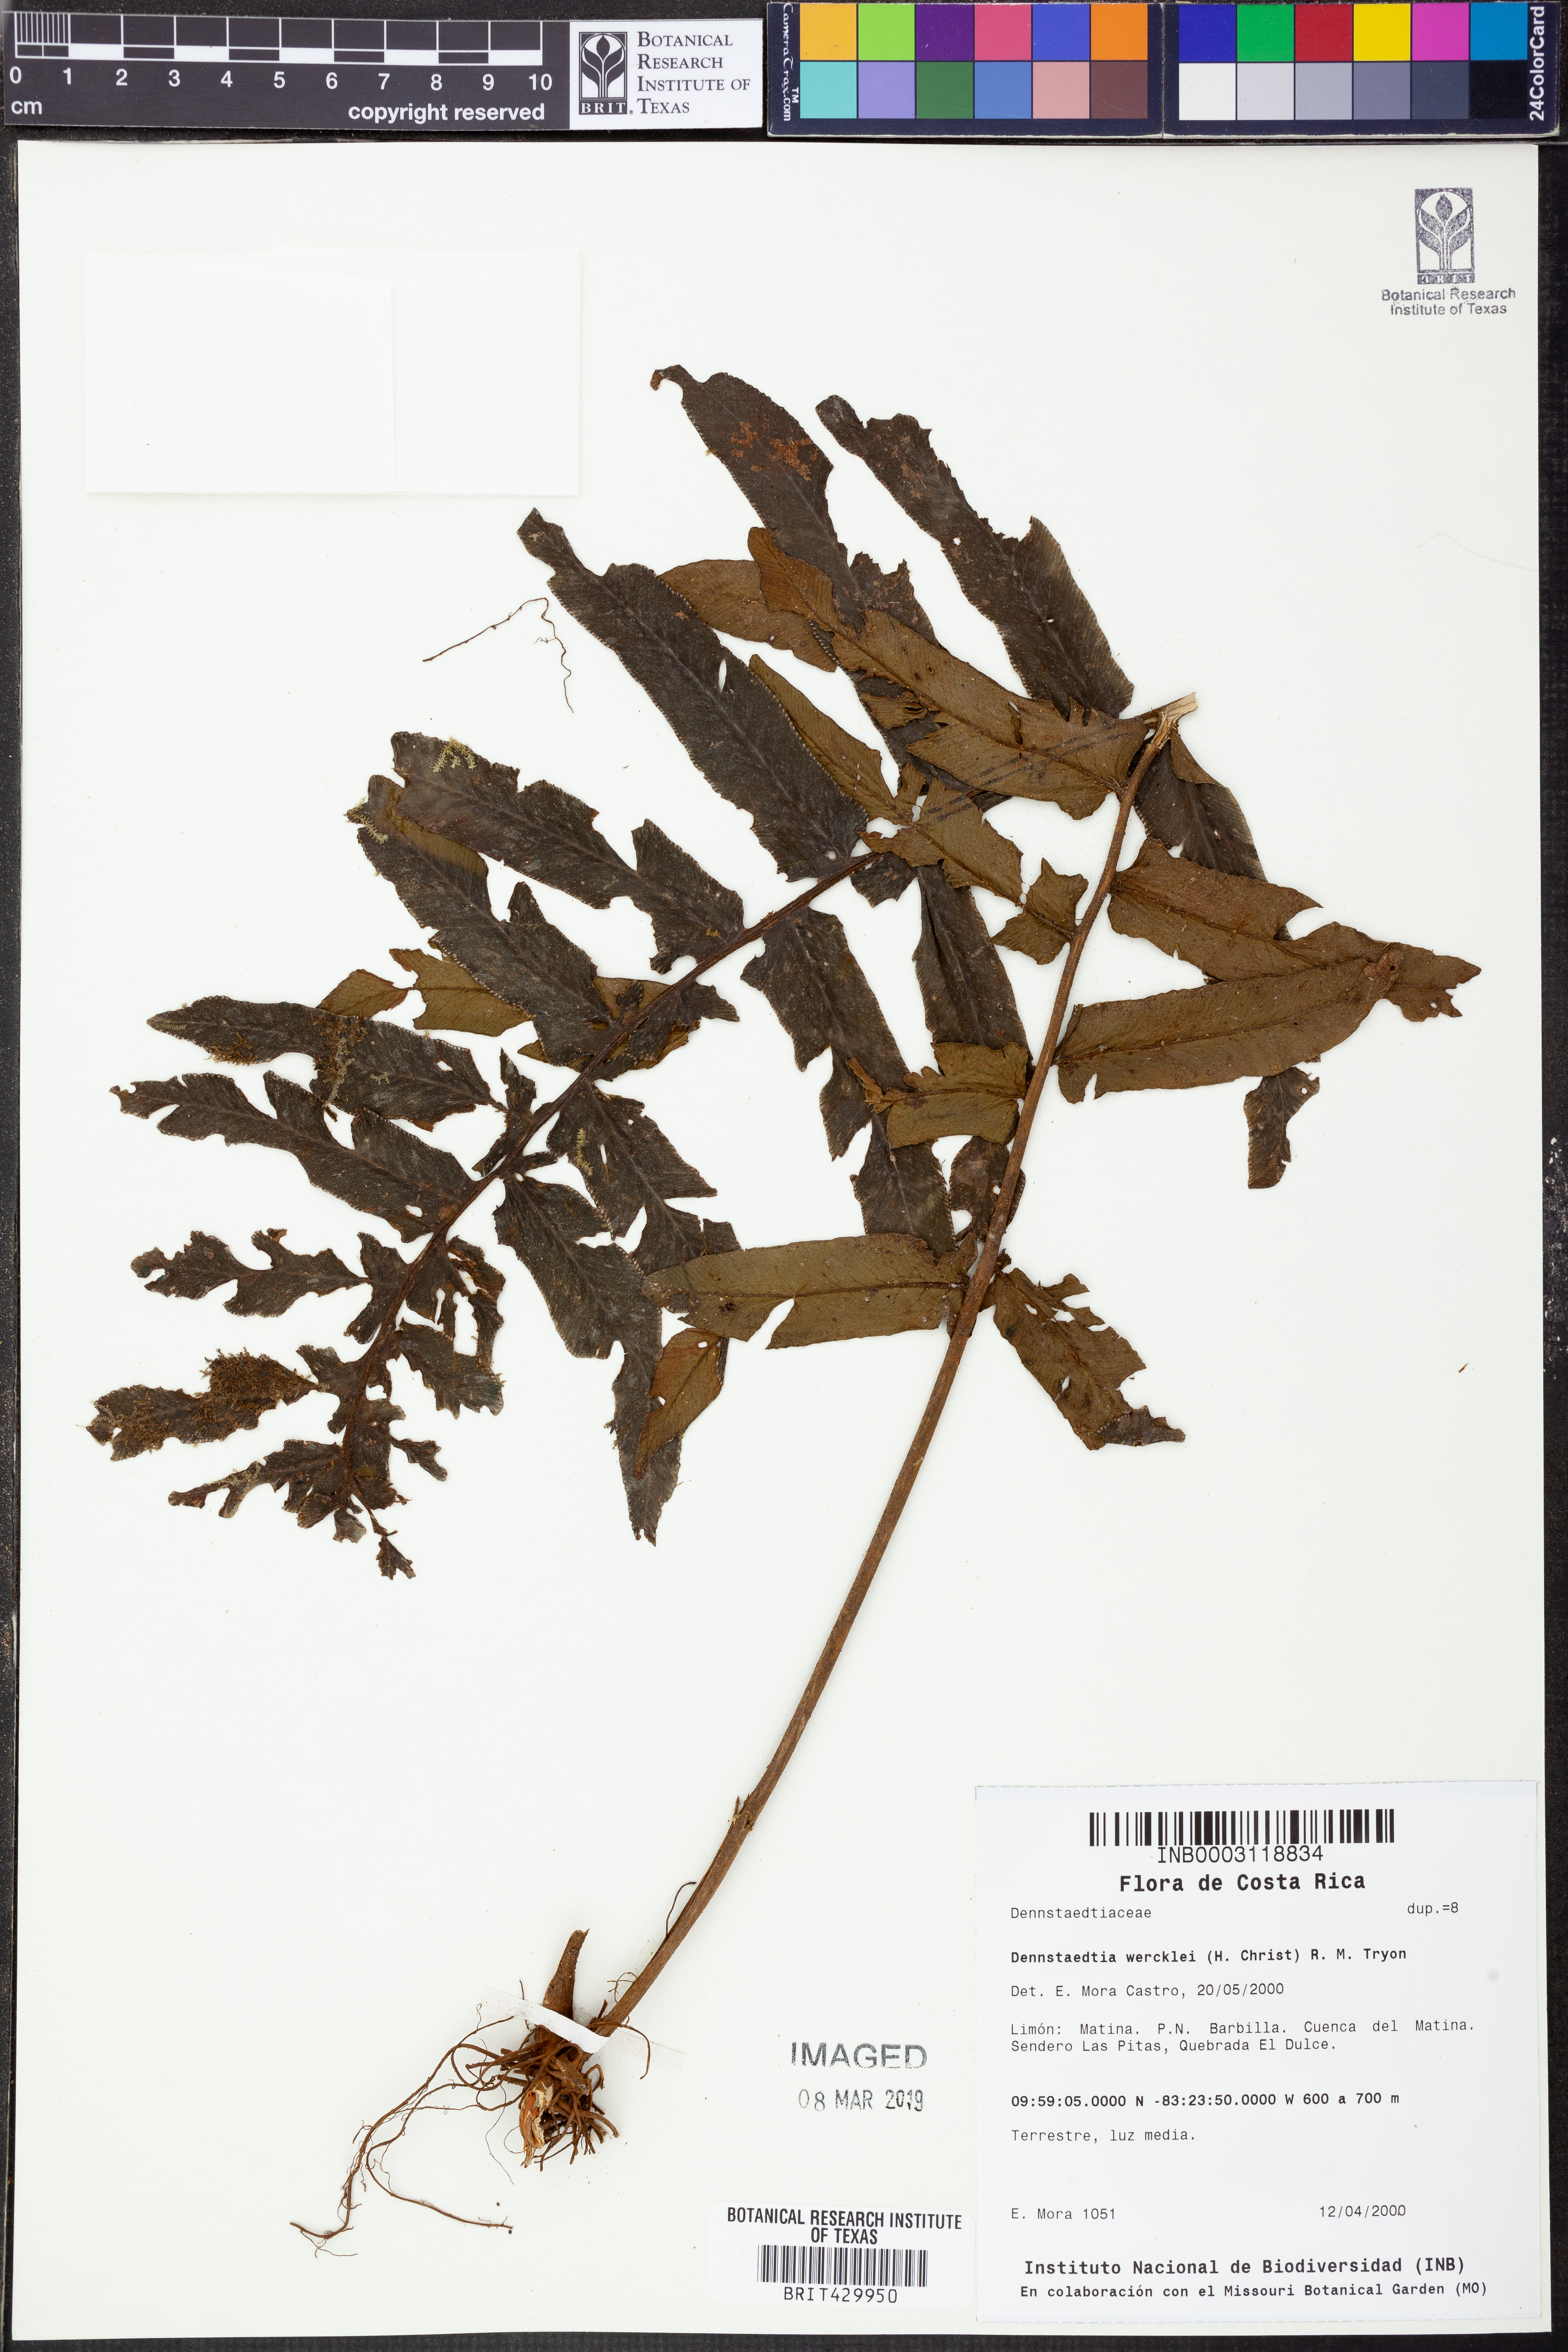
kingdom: Plantae
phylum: Tracheophyta
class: Polypodiopsida
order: Polypodiales
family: Dennstaedtiaceae
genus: Dennstaedtia
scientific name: Dennstaedtia wercklei
